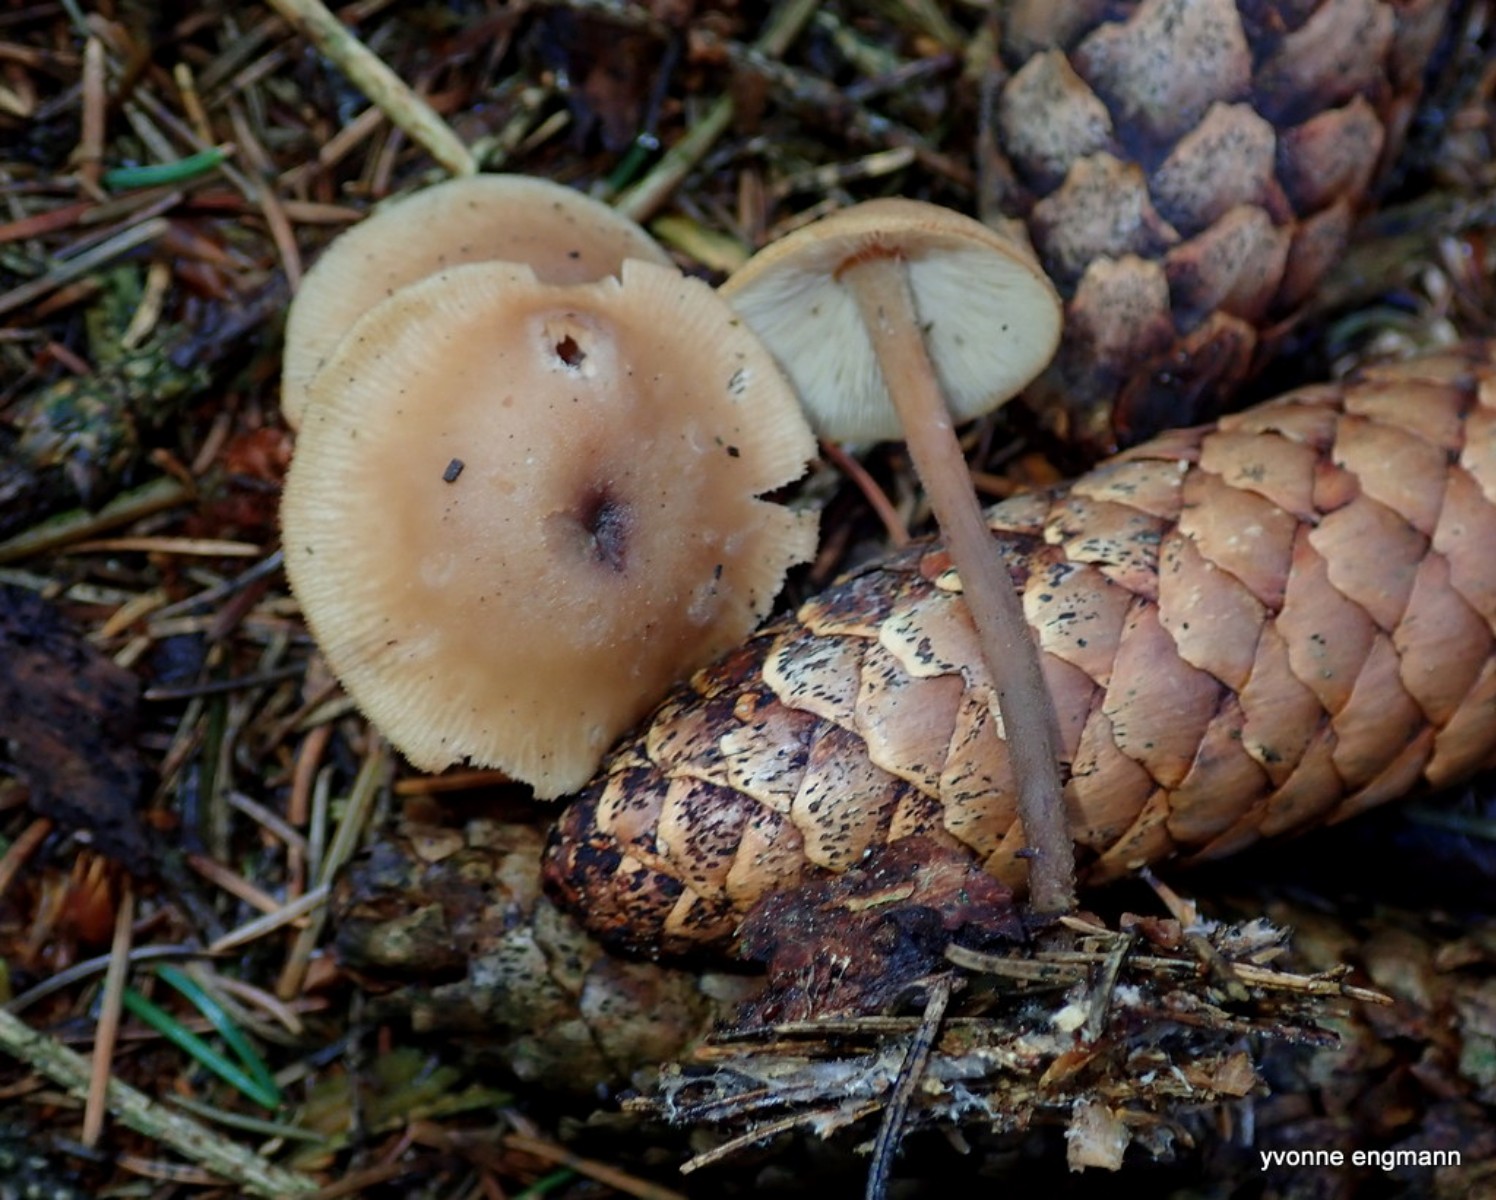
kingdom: Fungi
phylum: Basidiomycota
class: Agaricomycetes
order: Agaricales
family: Omphalotaceae
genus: Rhodocollybia
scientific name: Rhodocollybia asema
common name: horngrå fladhat
